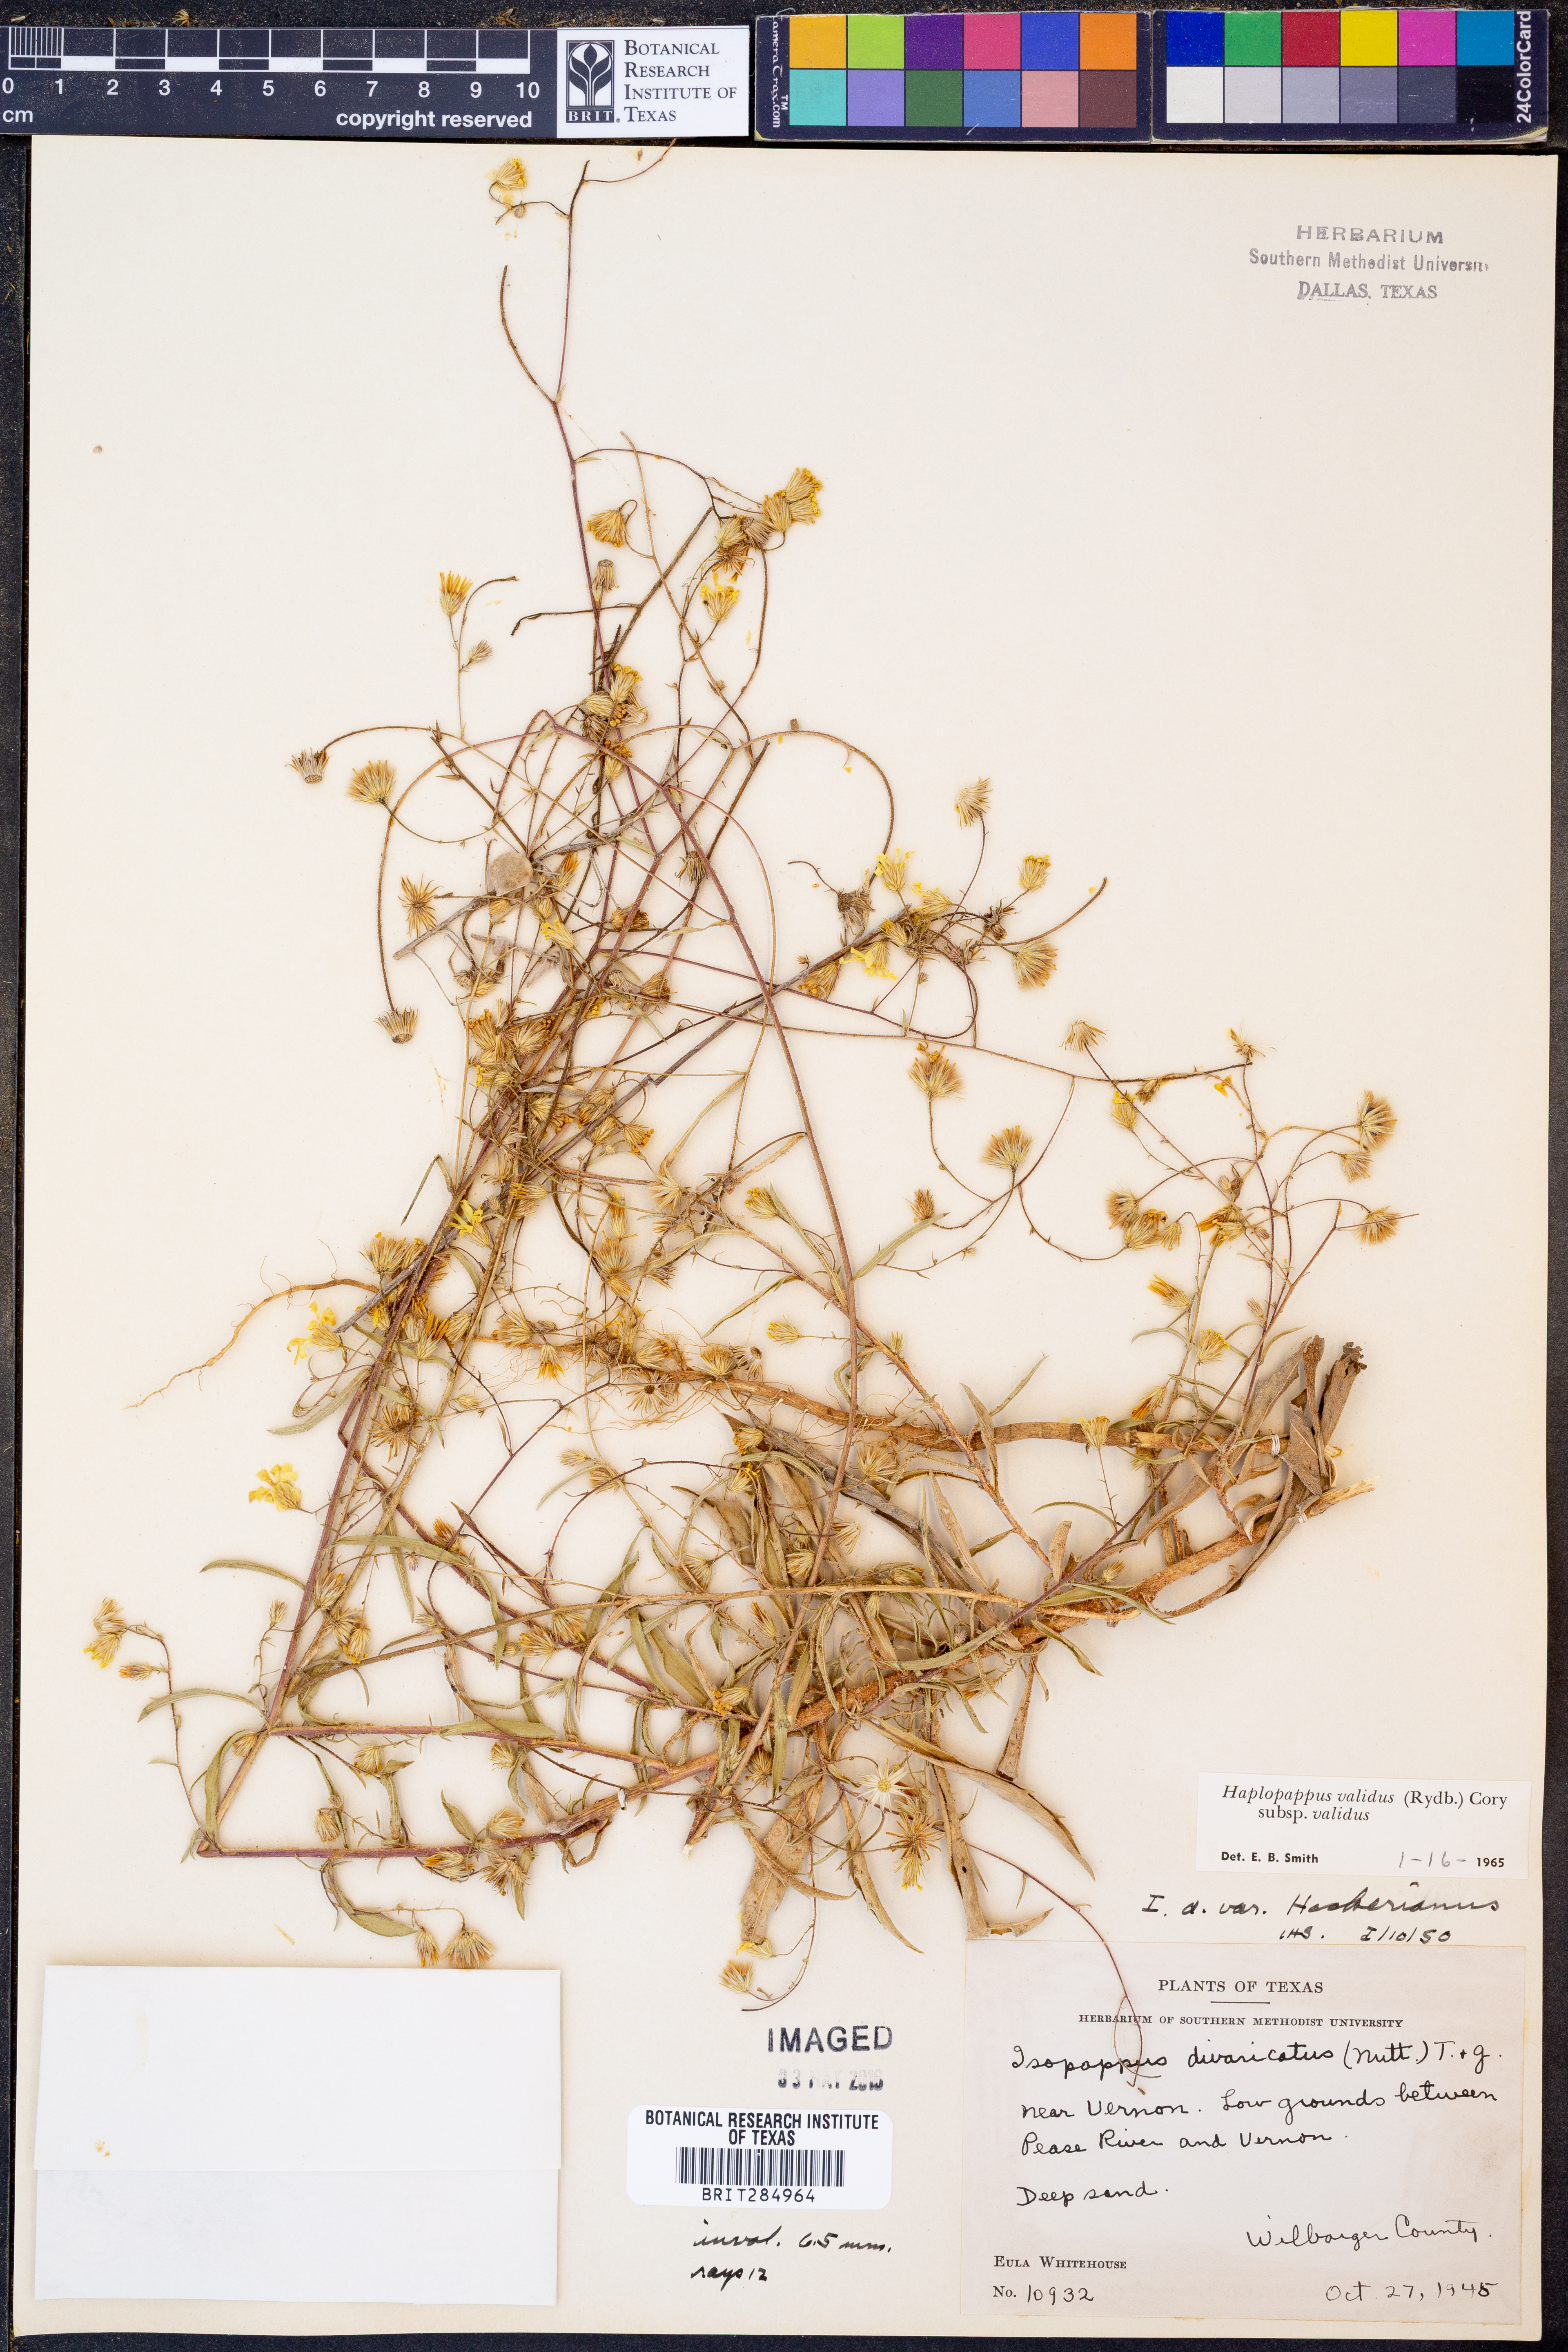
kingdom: Plantae
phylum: Tracheophyta
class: Magnoliopsida
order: Asterales
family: Asteraceae
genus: Croptilon
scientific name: Croptilon hookerianum
